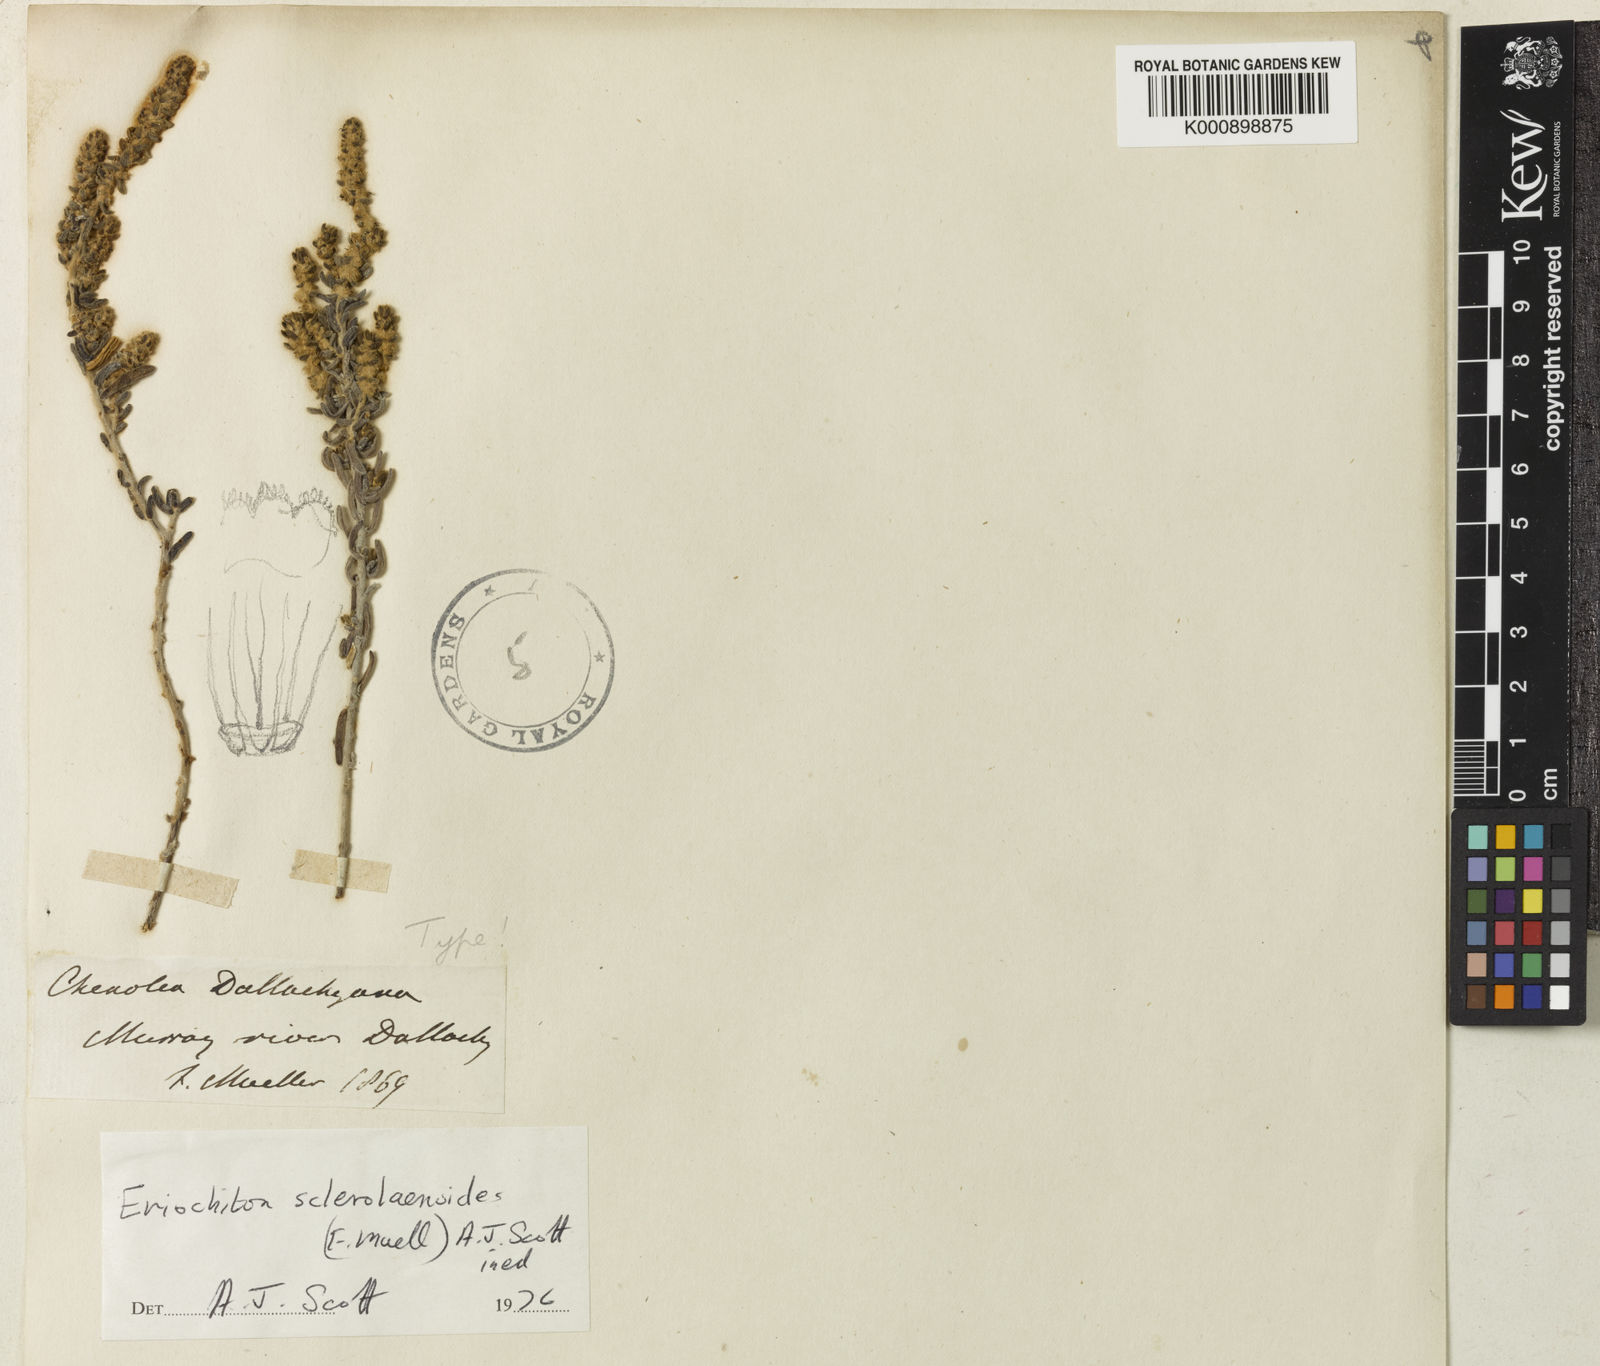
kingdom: Plantae
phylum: Tracheophyta
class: Magnoliopsida
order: Caryophyllales
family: Amaranthaceae
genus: Sclerolaena
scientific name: Sclerolaena
